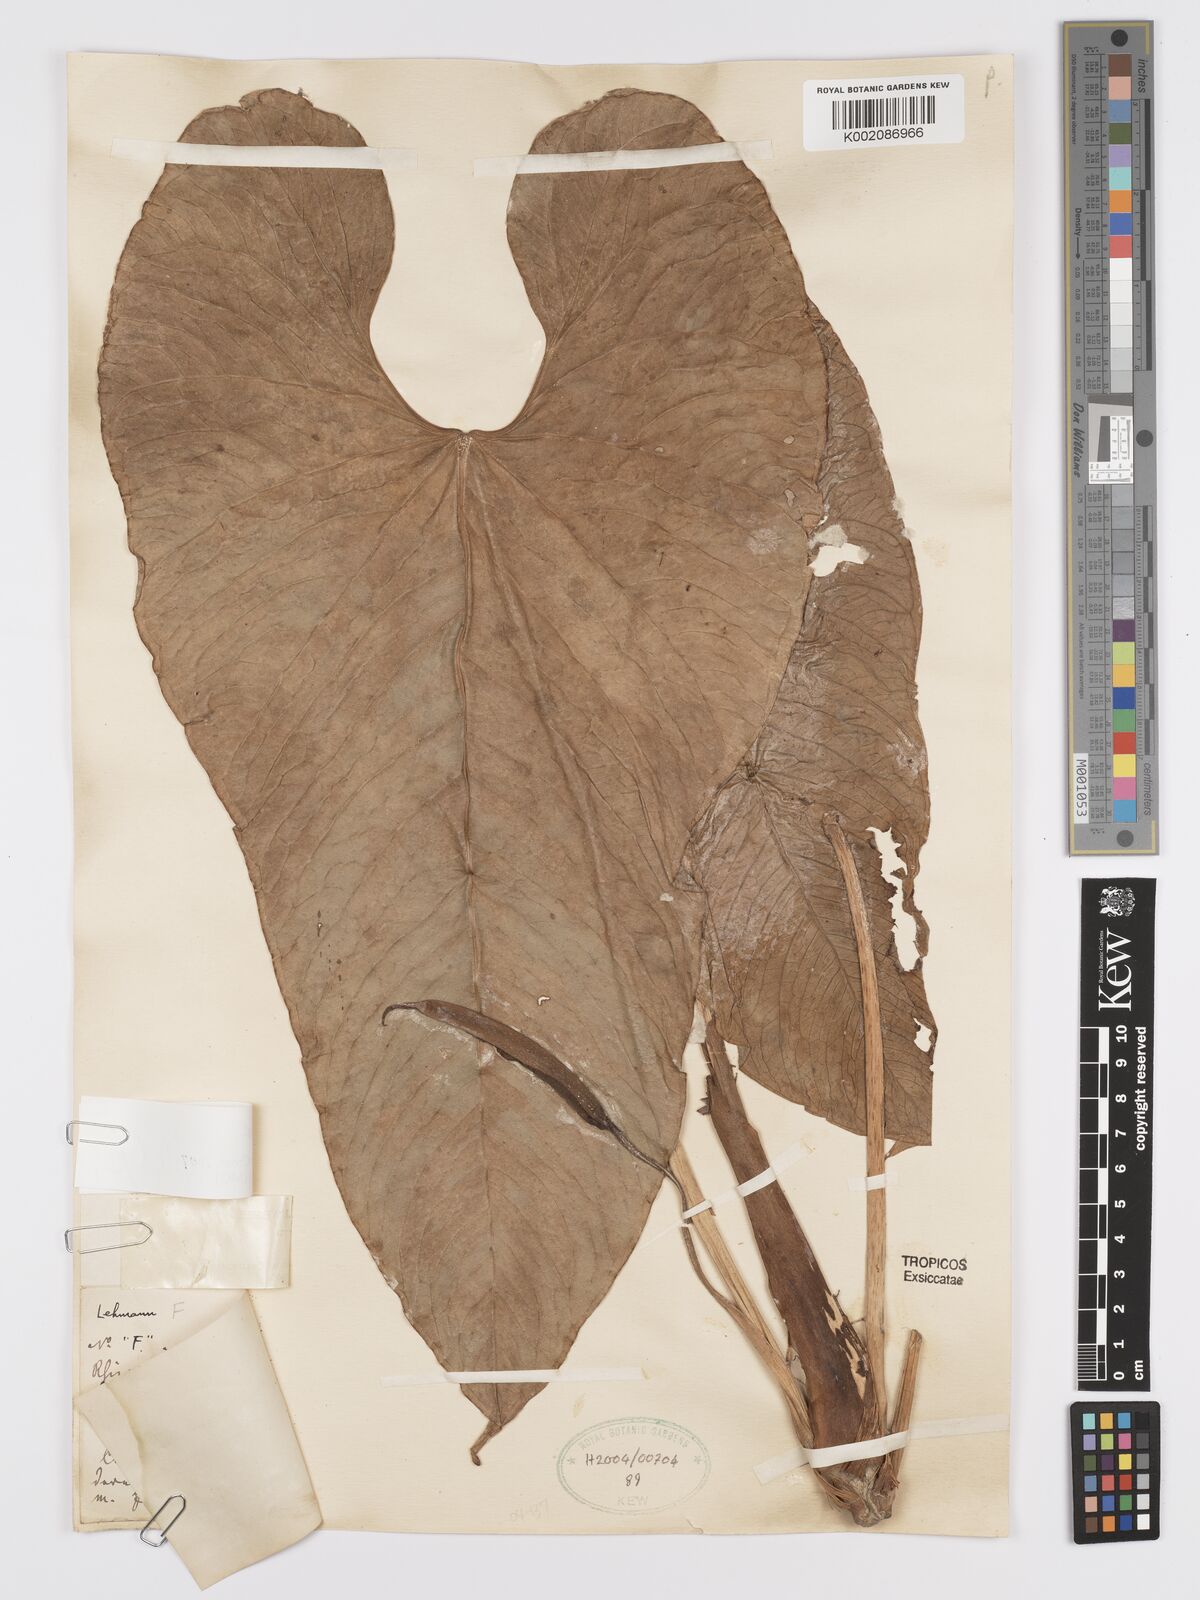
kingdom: Plantae
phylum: Tracheophyta
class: Liliopsida
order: Alismatales
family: Araceae
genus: Anthurium
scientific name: Anthurium sanguineum
